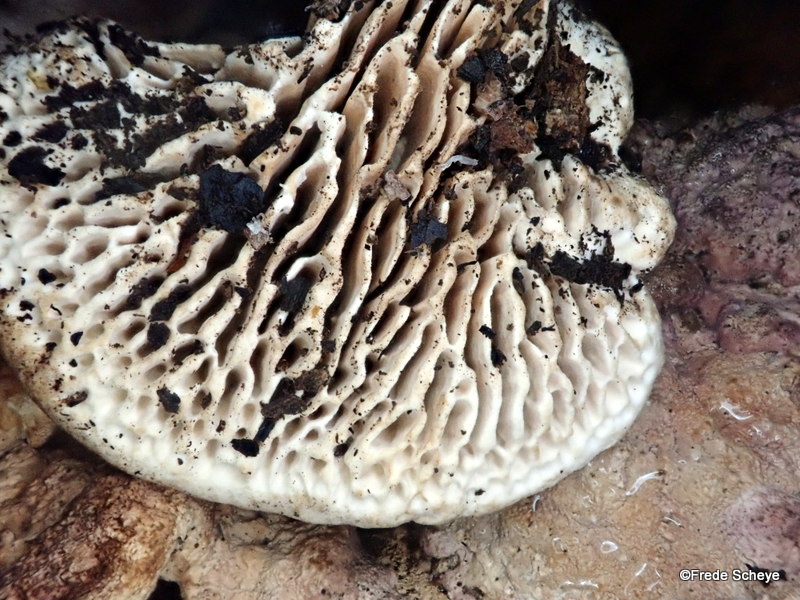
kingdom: Fungi
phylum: Basidiomycota
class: Agaricomycetes
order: Polyporales
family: Fomitopsidaceae
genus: Daedalea
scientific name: Daedalea quercina
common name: ege-labyrintsvamp
